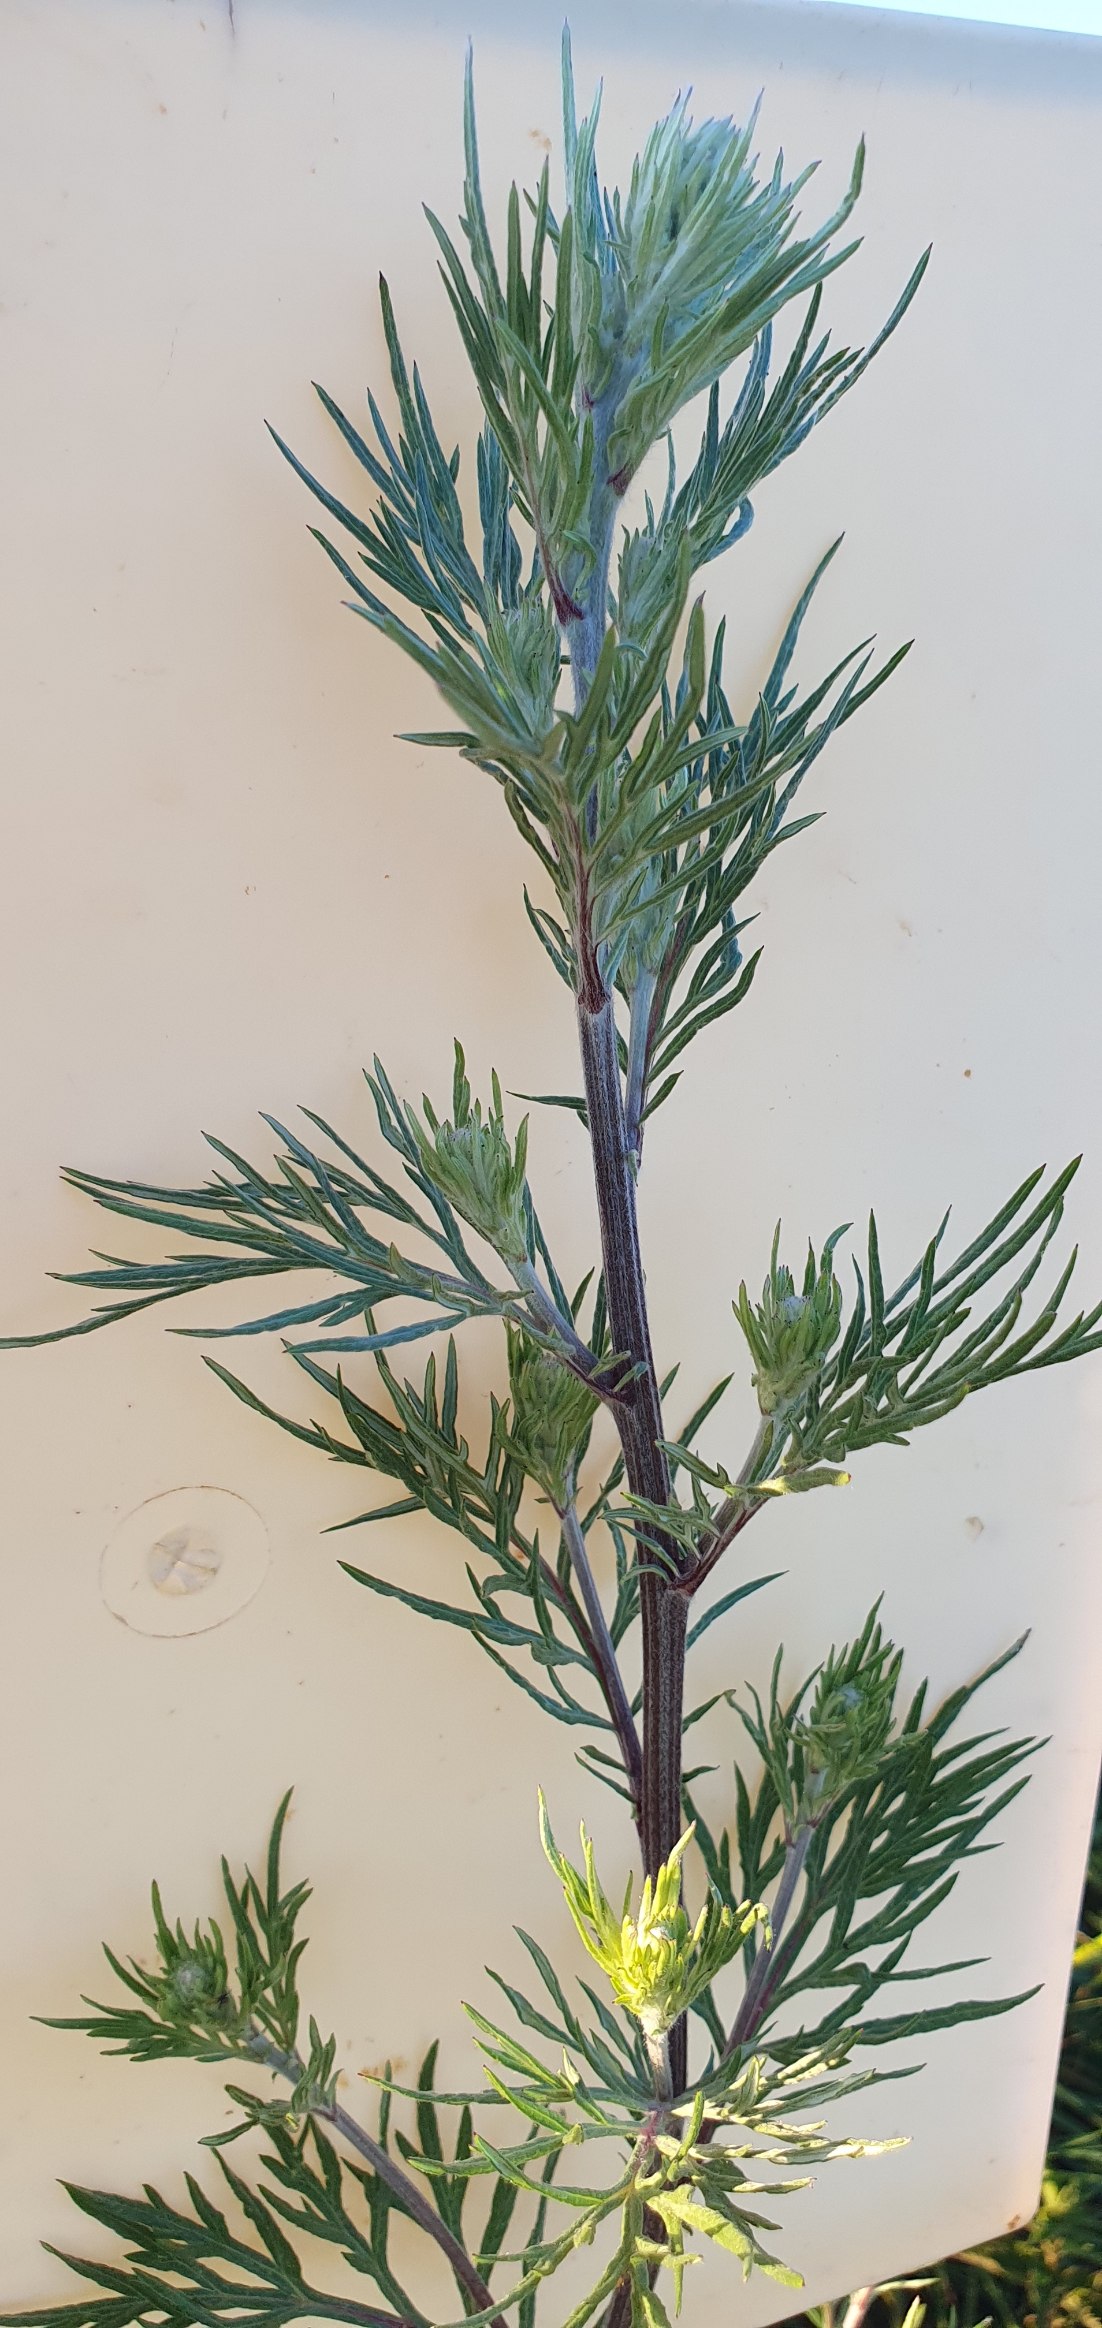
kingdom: Plantae
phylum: Tracheophyta
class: Magnoliopsida
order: Asterales
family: Asteraceae
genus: Artemisia
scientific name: Artemisia vulgaris
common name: Grå-bynke
